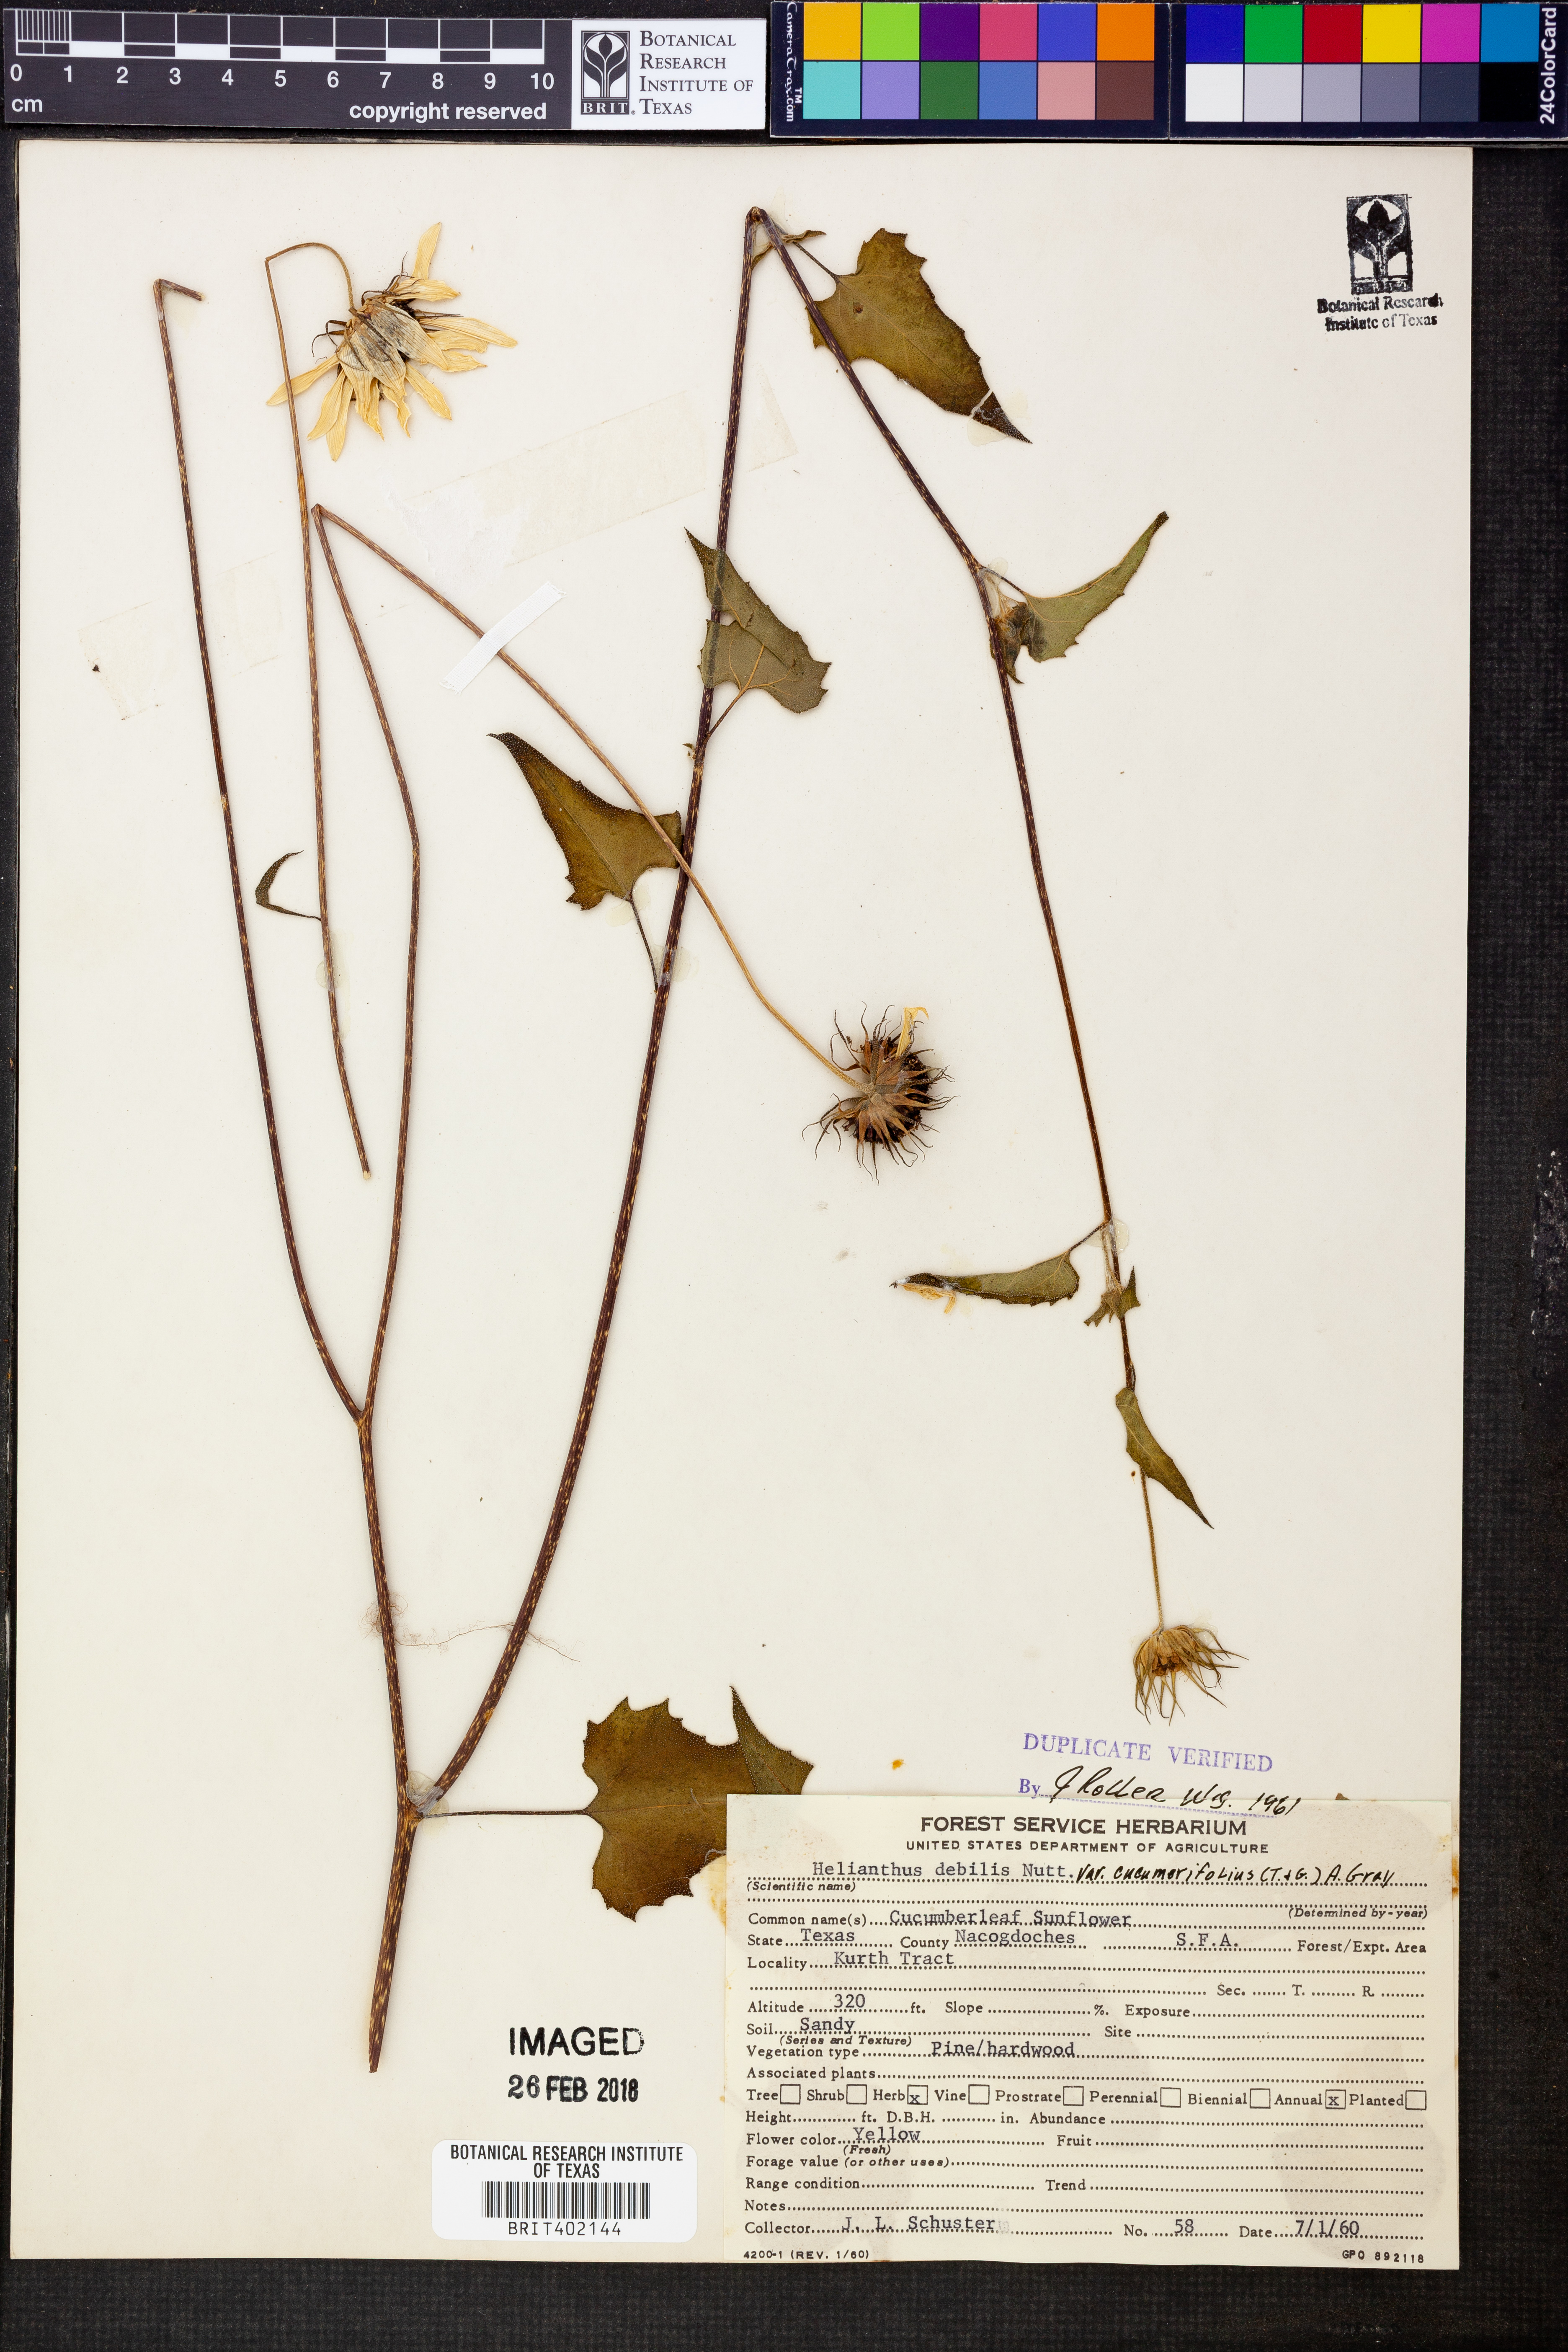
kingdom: Plantae
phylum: Tracheophyta
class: Magnoliopsida
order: Asterales
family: Asteraceae
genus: Helianthus
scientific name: Helianthus debilis
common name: Weak sunflower
